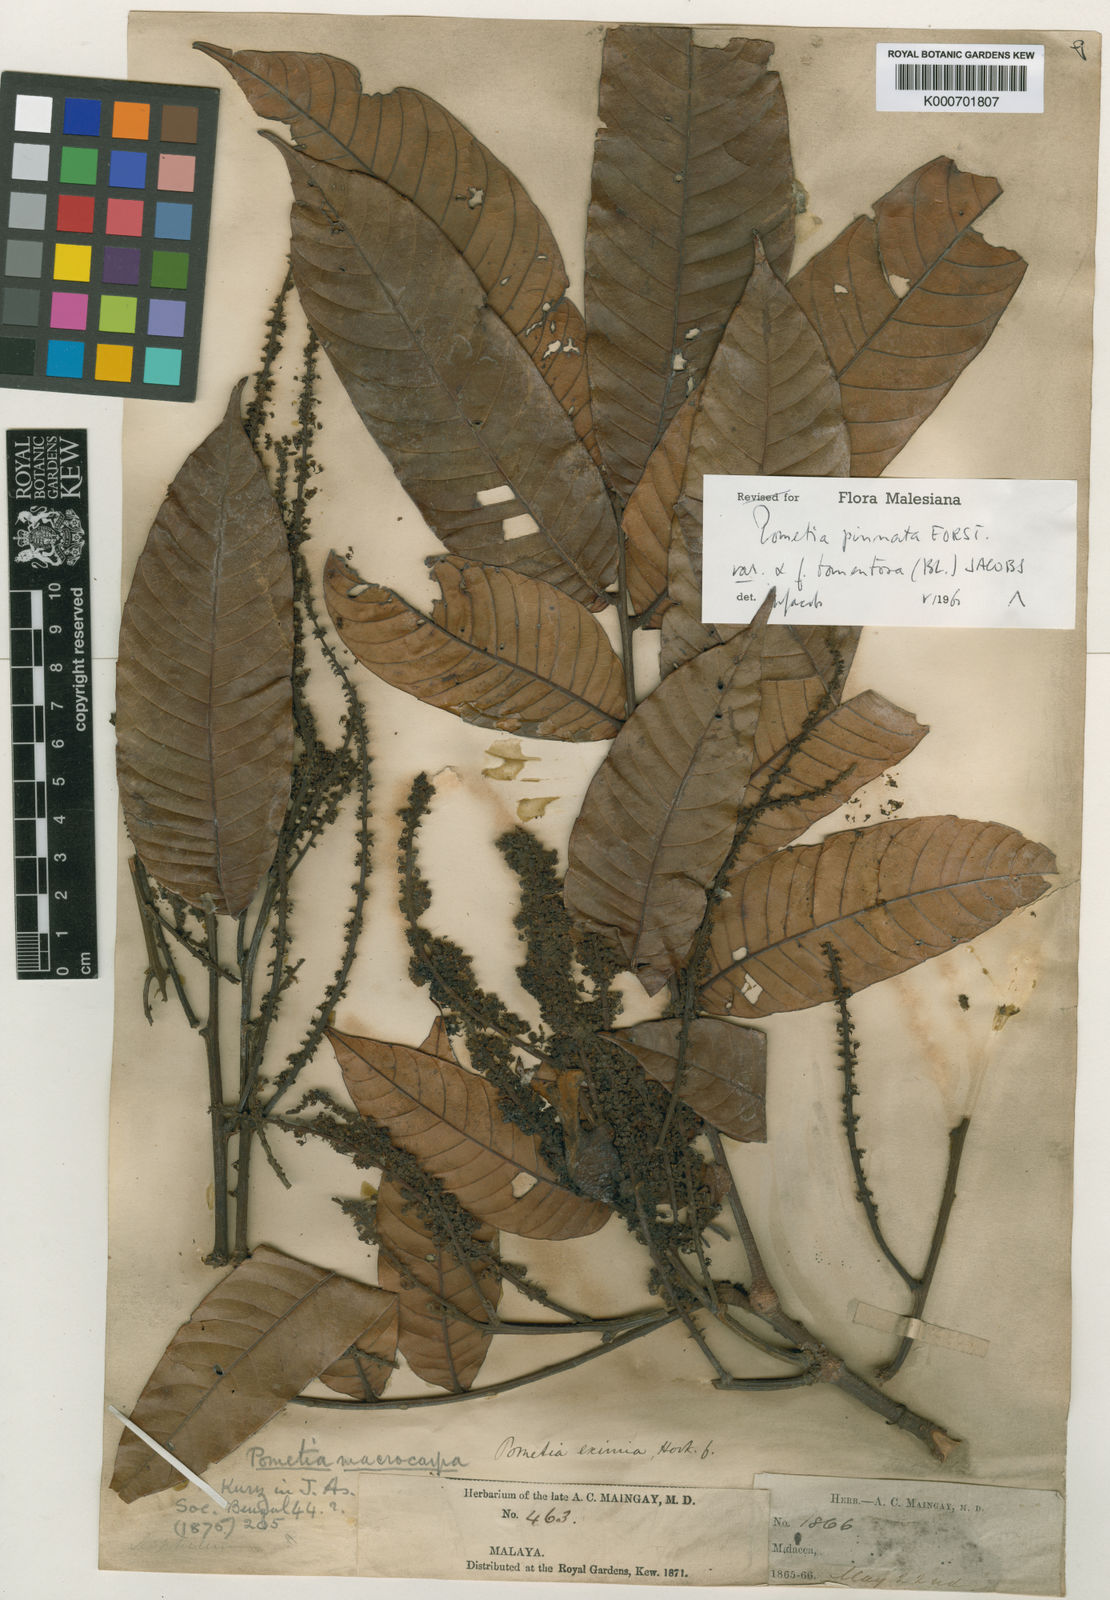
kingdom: Plantae
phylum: Tracheophyta
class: Magnoliopsida
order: Sapindales
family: Sapindaceae
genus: Pometia
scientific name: Pometia pinnata
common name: Oceanic lychee
